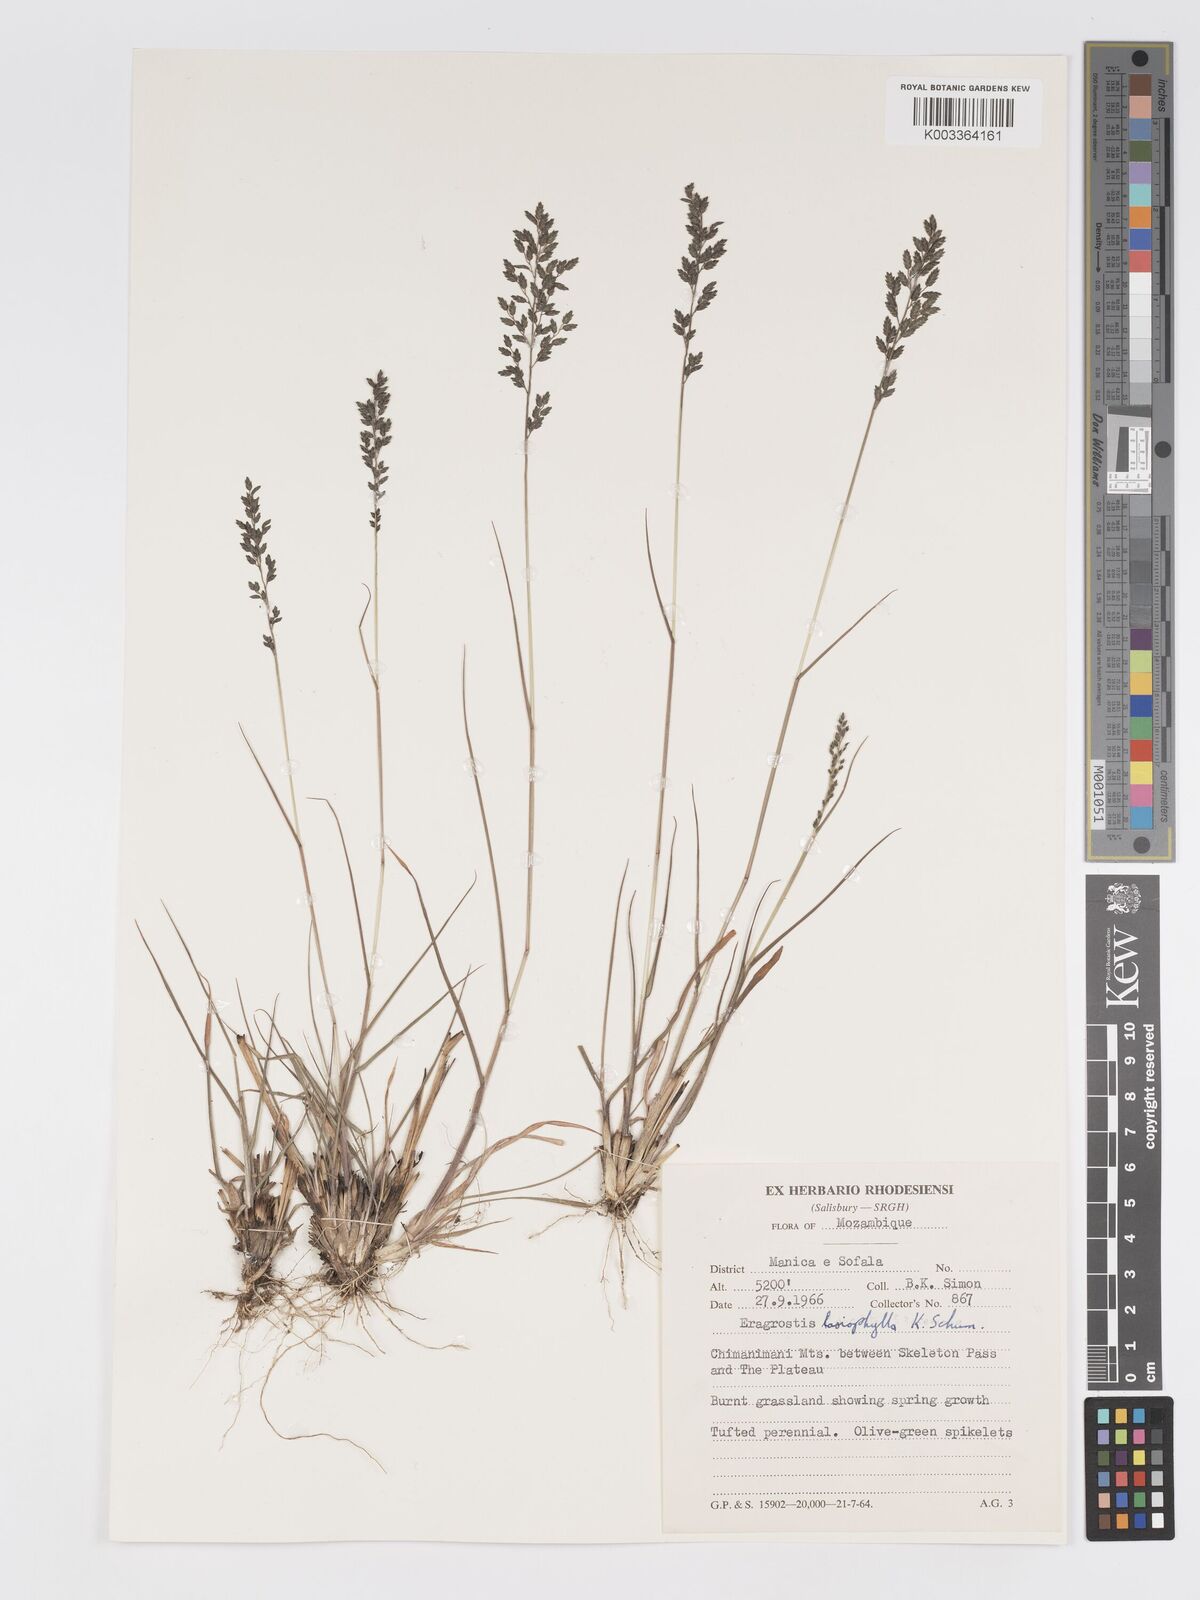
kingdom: Plantae
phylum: Tracheophyta
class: Liliopsida
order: Poales
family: Poaceae
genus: Eragrostis
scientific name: Eragrostis racemosa
